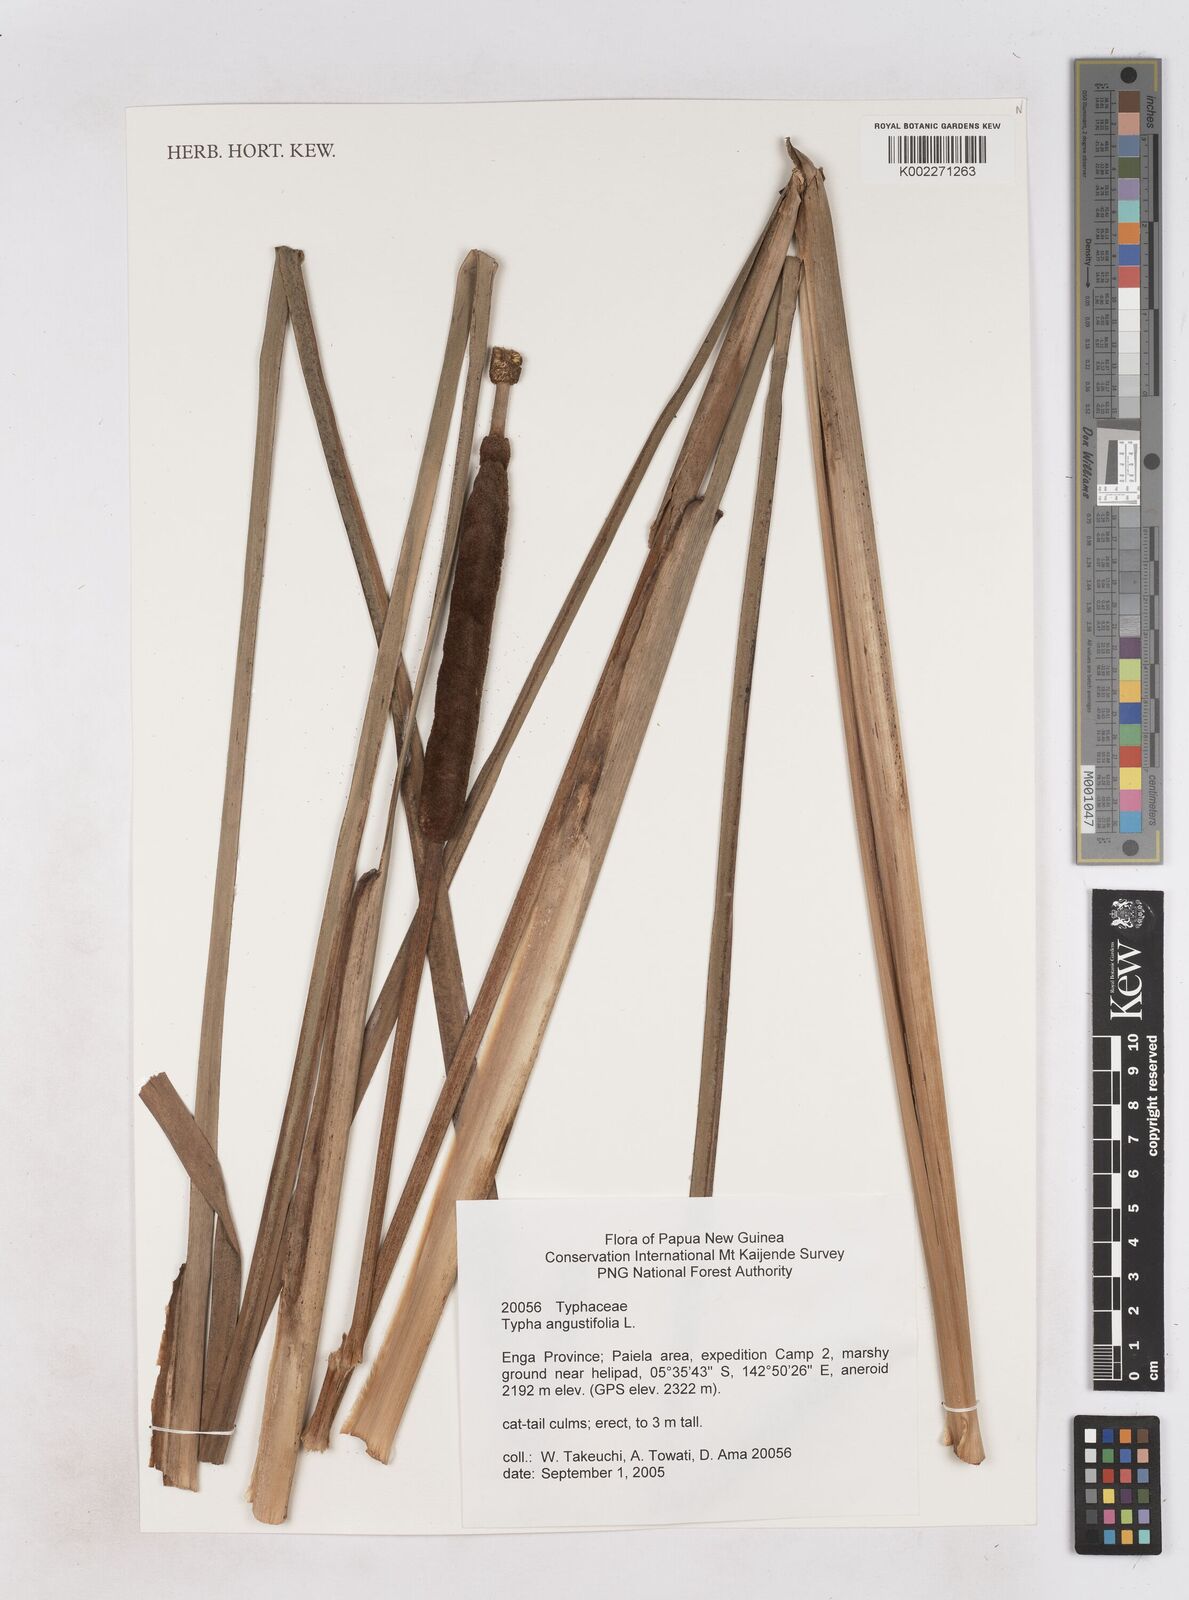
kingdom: Plantae
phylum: Tracheophyta
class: Liliopsida
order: Poales
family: Typhaceae
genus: Typha
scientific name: Typha angustifolia
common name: Lesser bulrush
